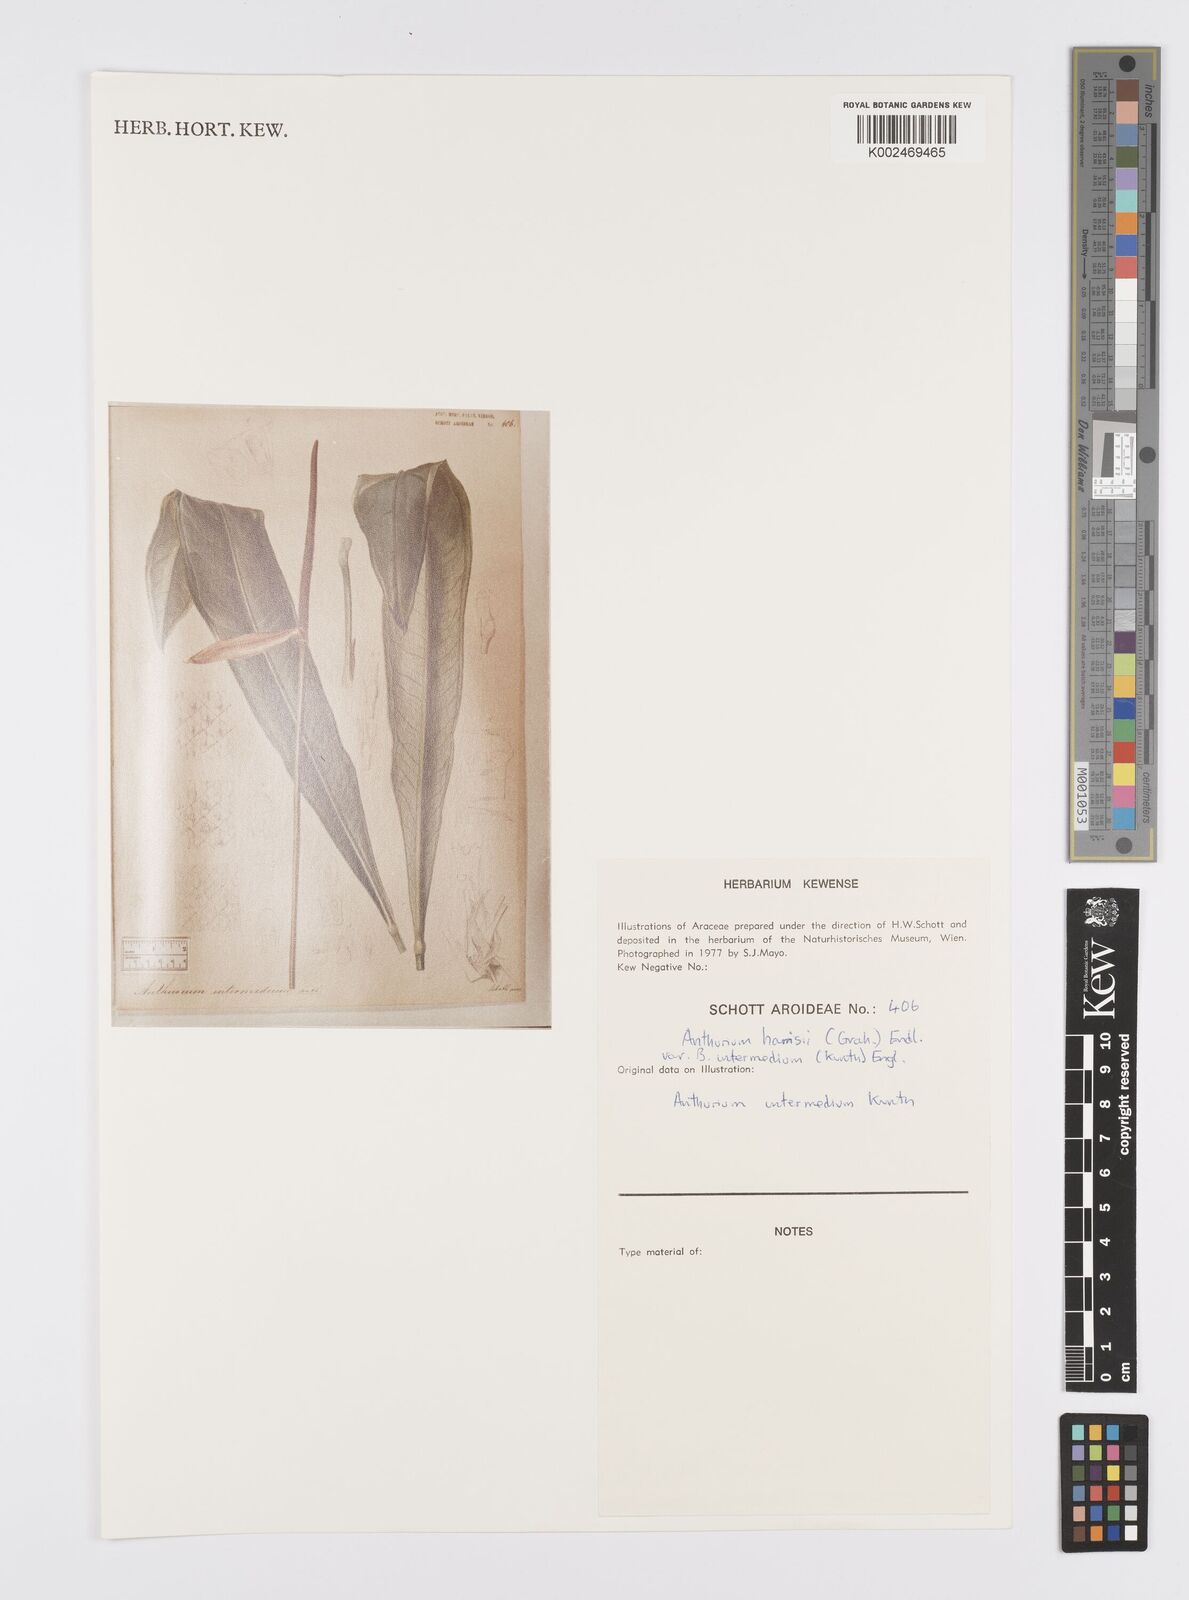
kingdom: Plantae
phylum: Tracheophyta
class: Liliopsida
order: Alismatales
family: Araceae
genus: Anthurium
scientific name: Anthurium intermedium
